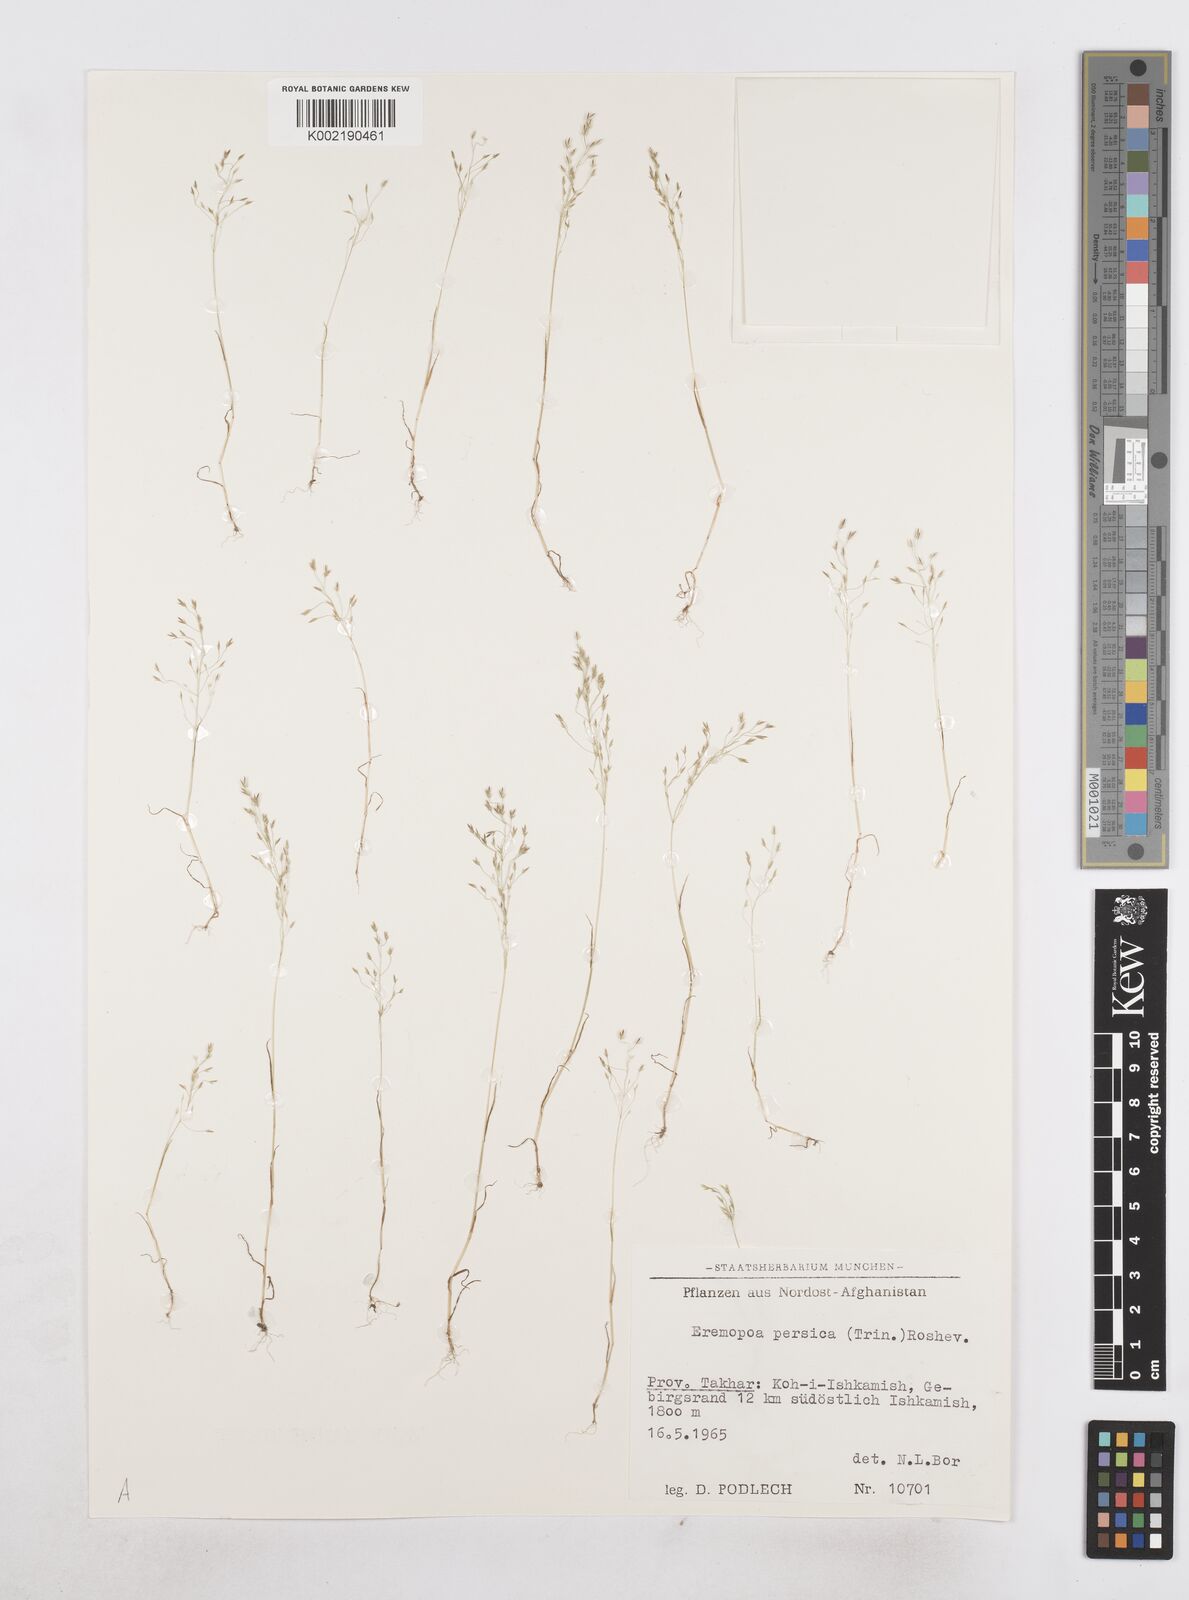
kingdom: Plantae
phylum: Tracheophyta
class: Liliopsida
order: Poales
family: Poaceae
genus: Poa
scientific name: Poa diaphora
